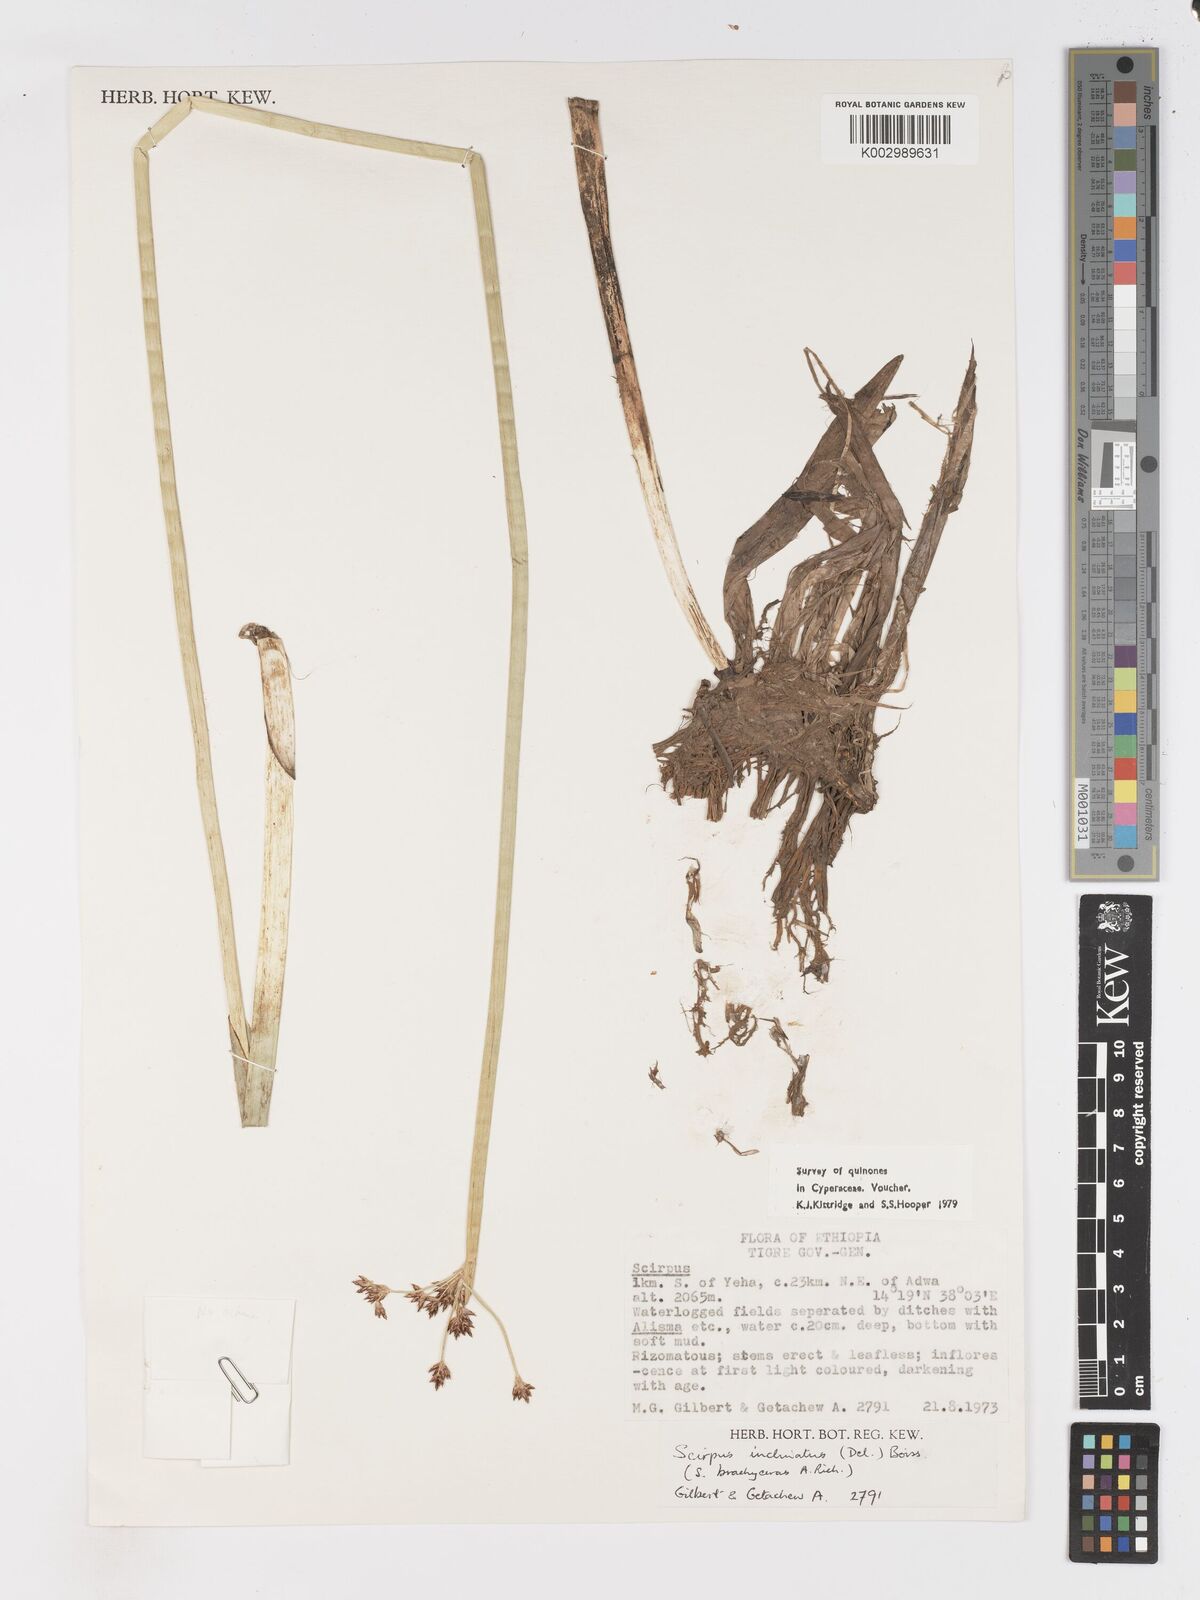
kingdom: Plantae
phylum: Tracheophyta
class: Liliopsida
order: Poales
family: Cyperaceae
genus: Schoenoplectiella
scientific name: Schoenoplectiella brachyceras
